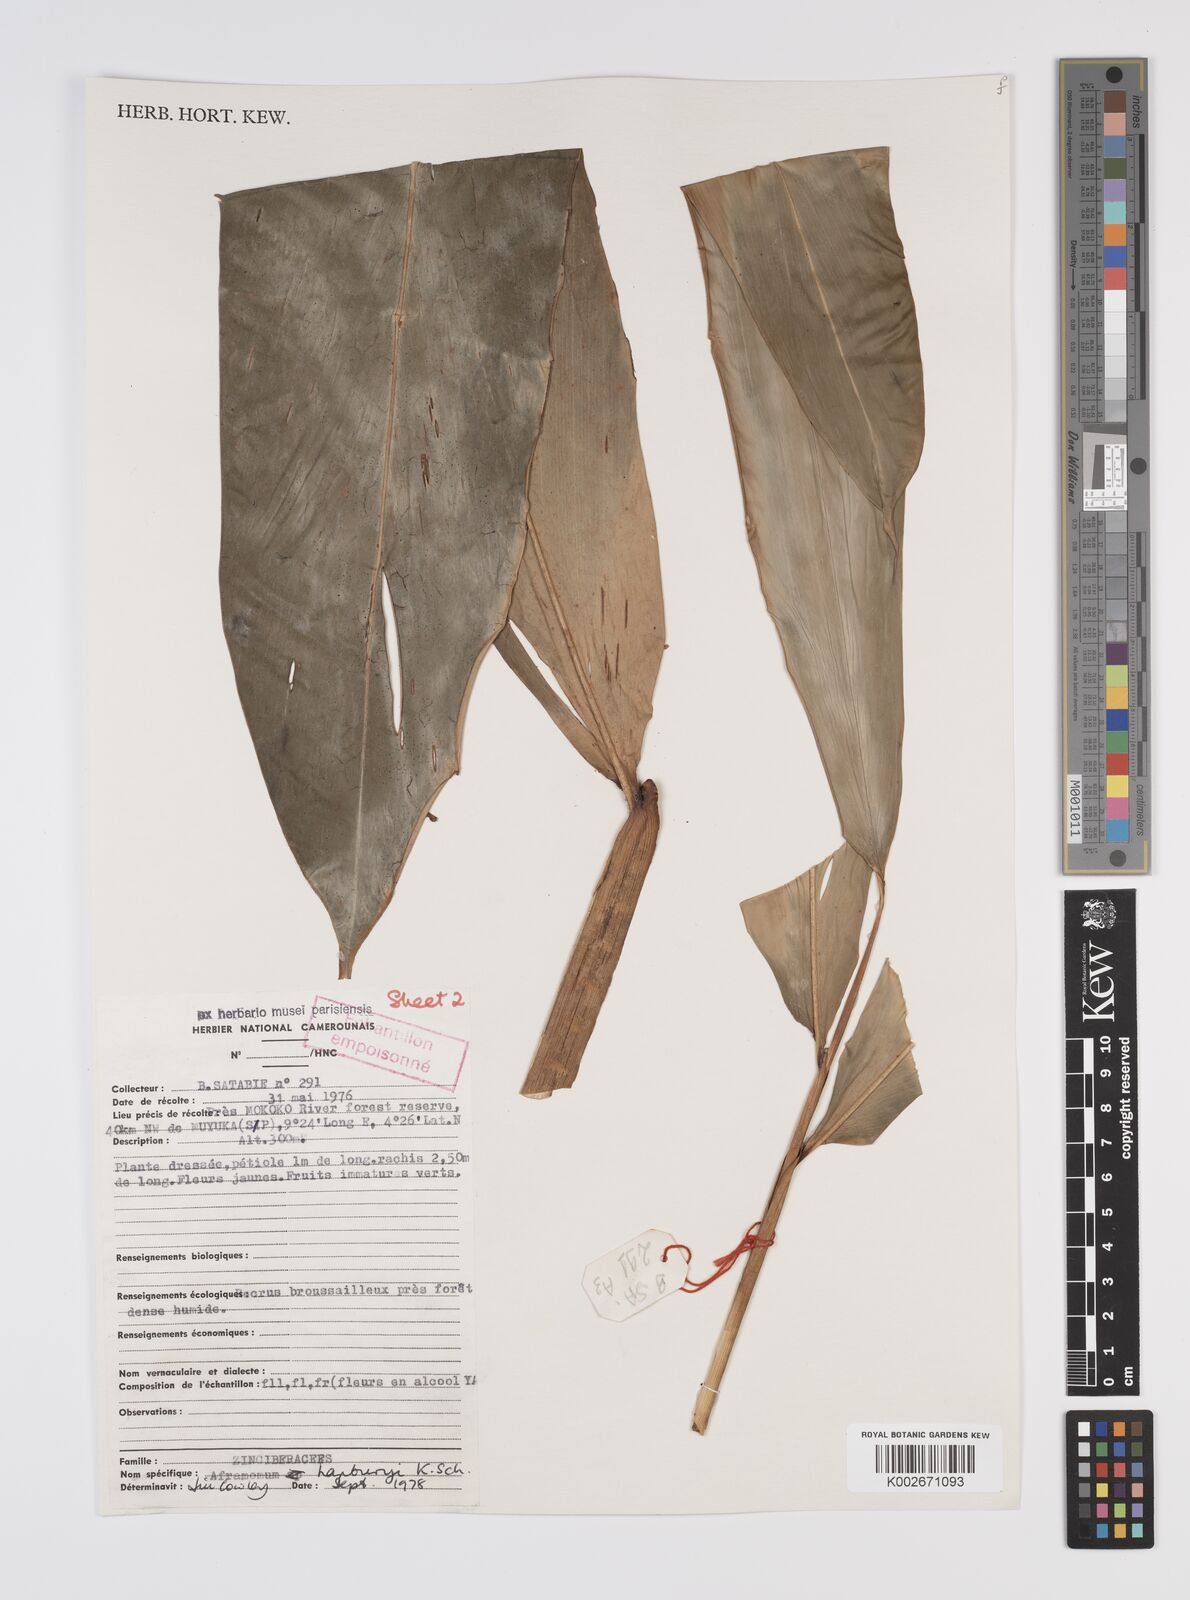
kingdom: Plantae
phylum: Tracheophyta
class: Liliopsida
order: Zingiberales
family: Zingiberaceae
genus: Aframomum
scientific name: Aframomum daniellii
